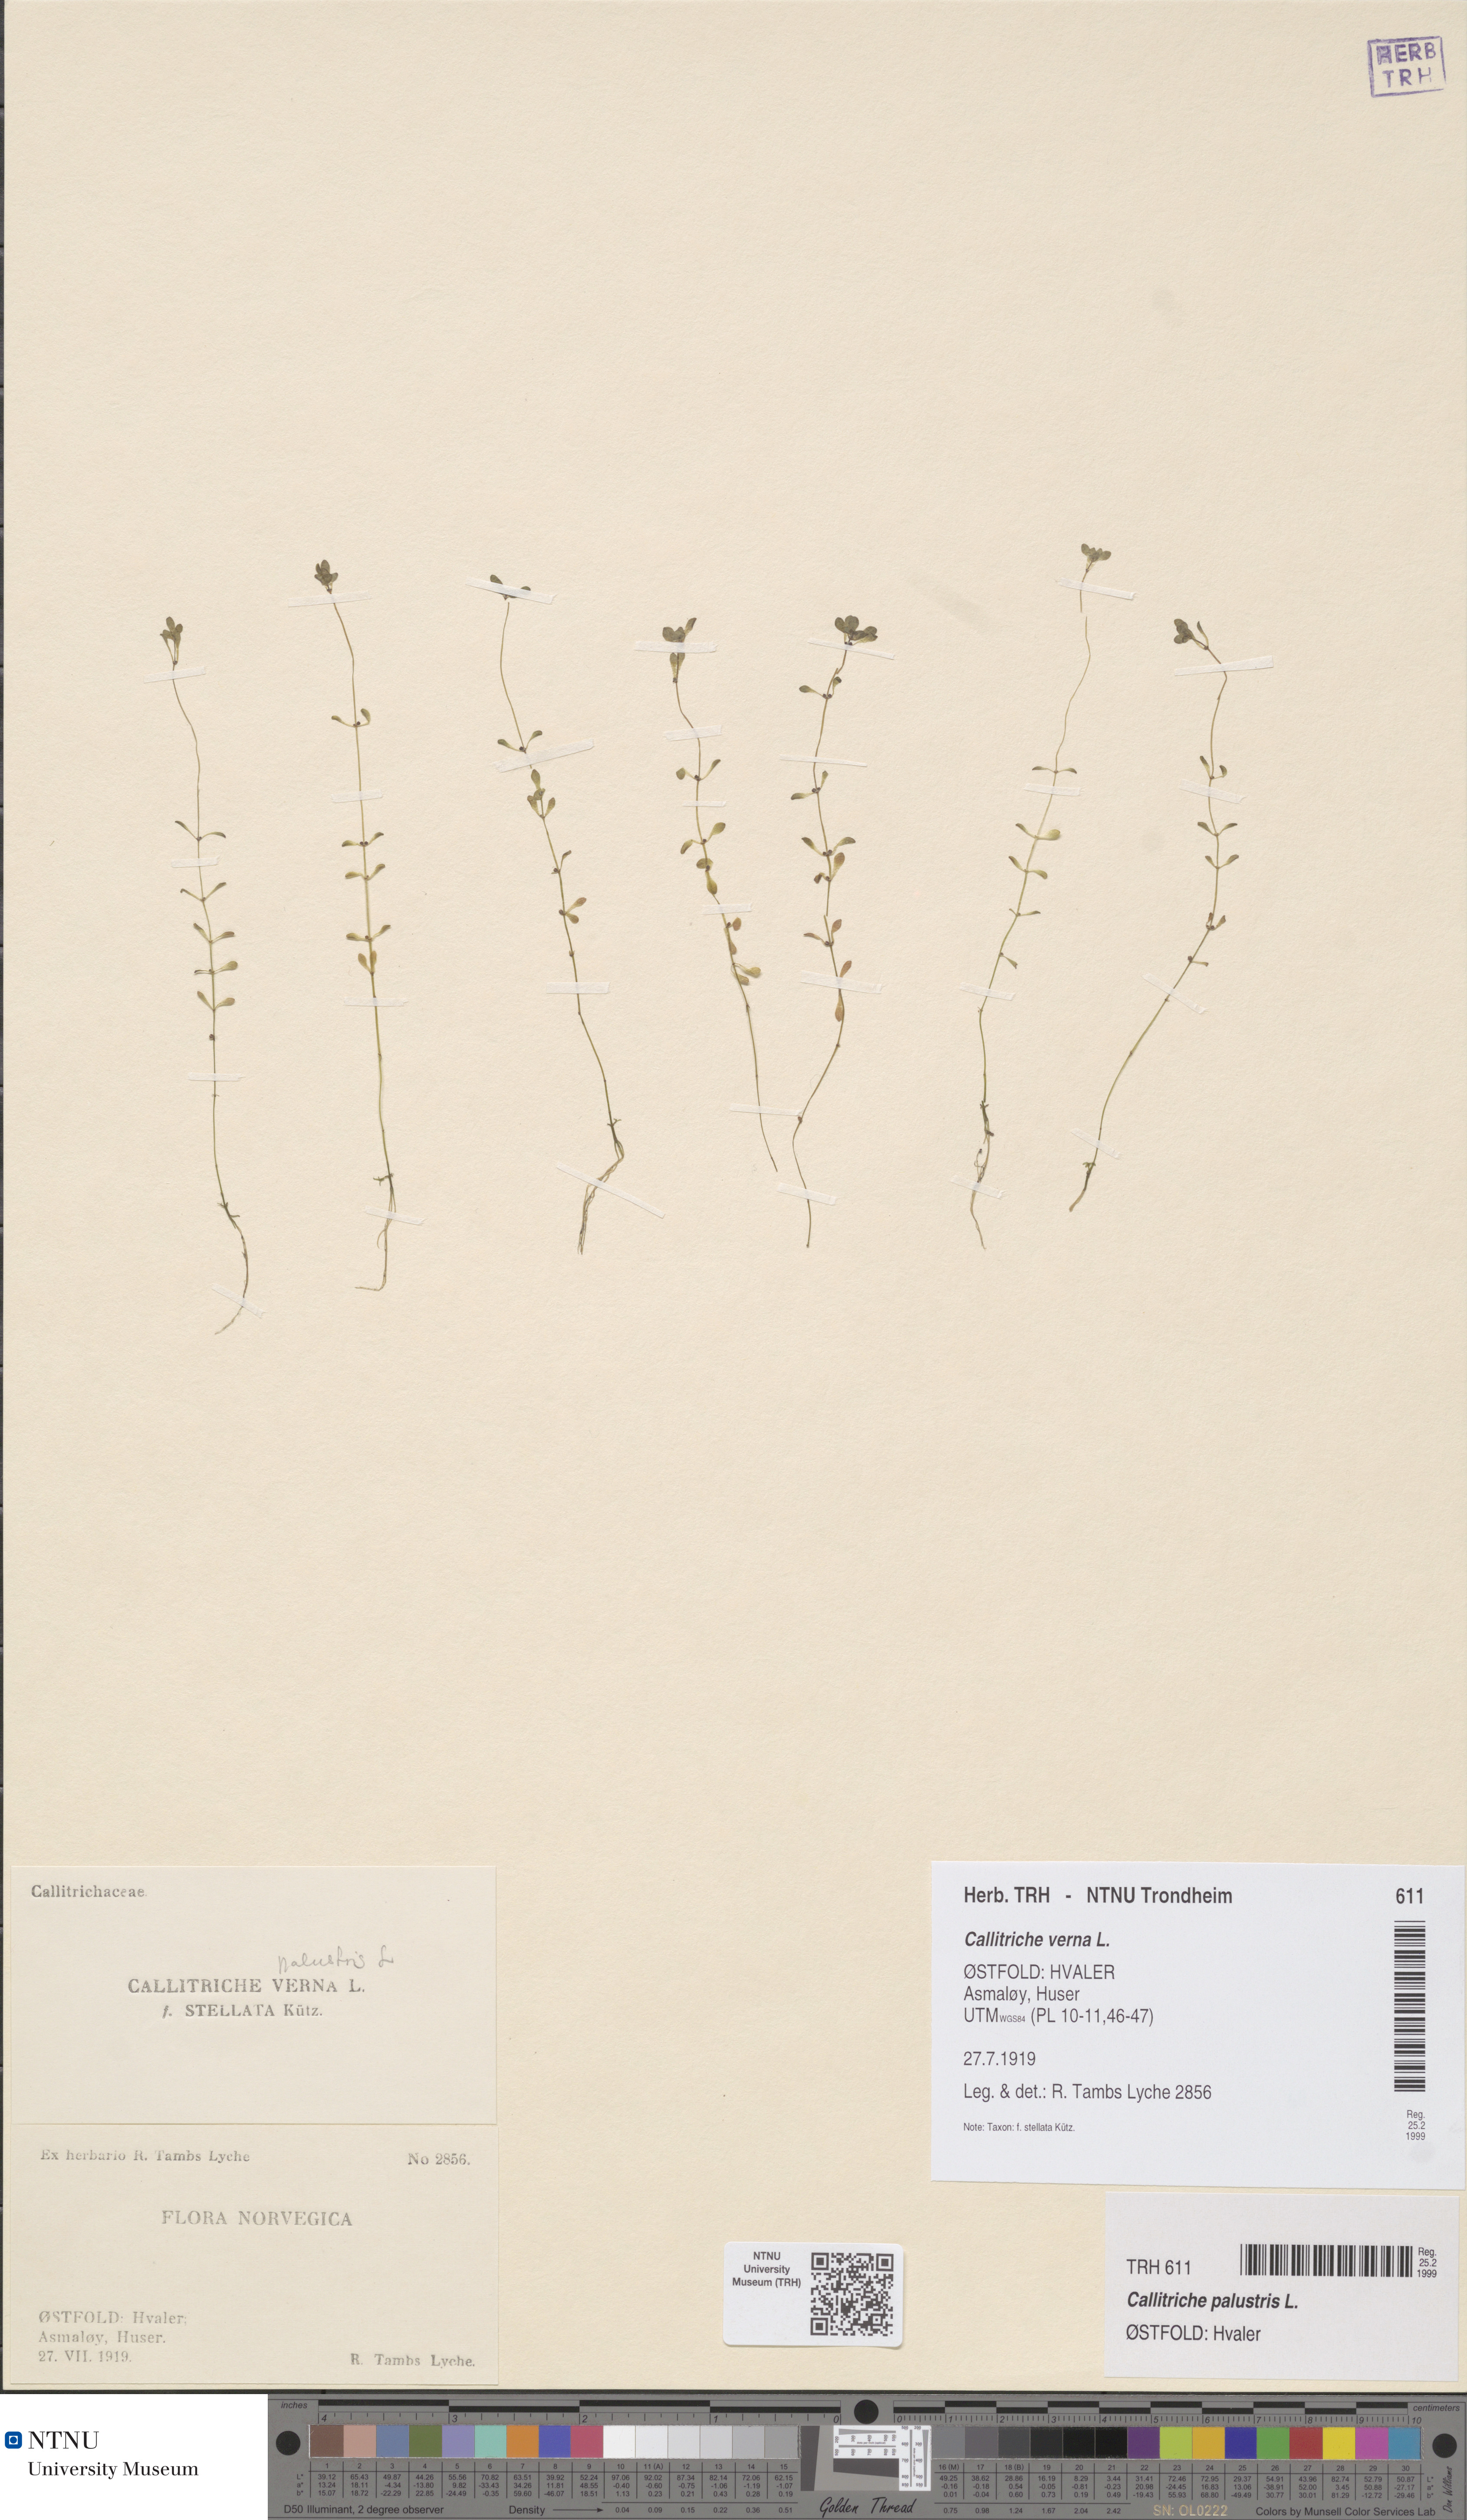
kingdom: Plantae
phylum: Tracheophyta
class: Magnoliopsida
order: Lamiales
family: Plantaginaceae
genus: Callitriche
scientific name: Callitriche palustris
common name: Spring water-starwort
